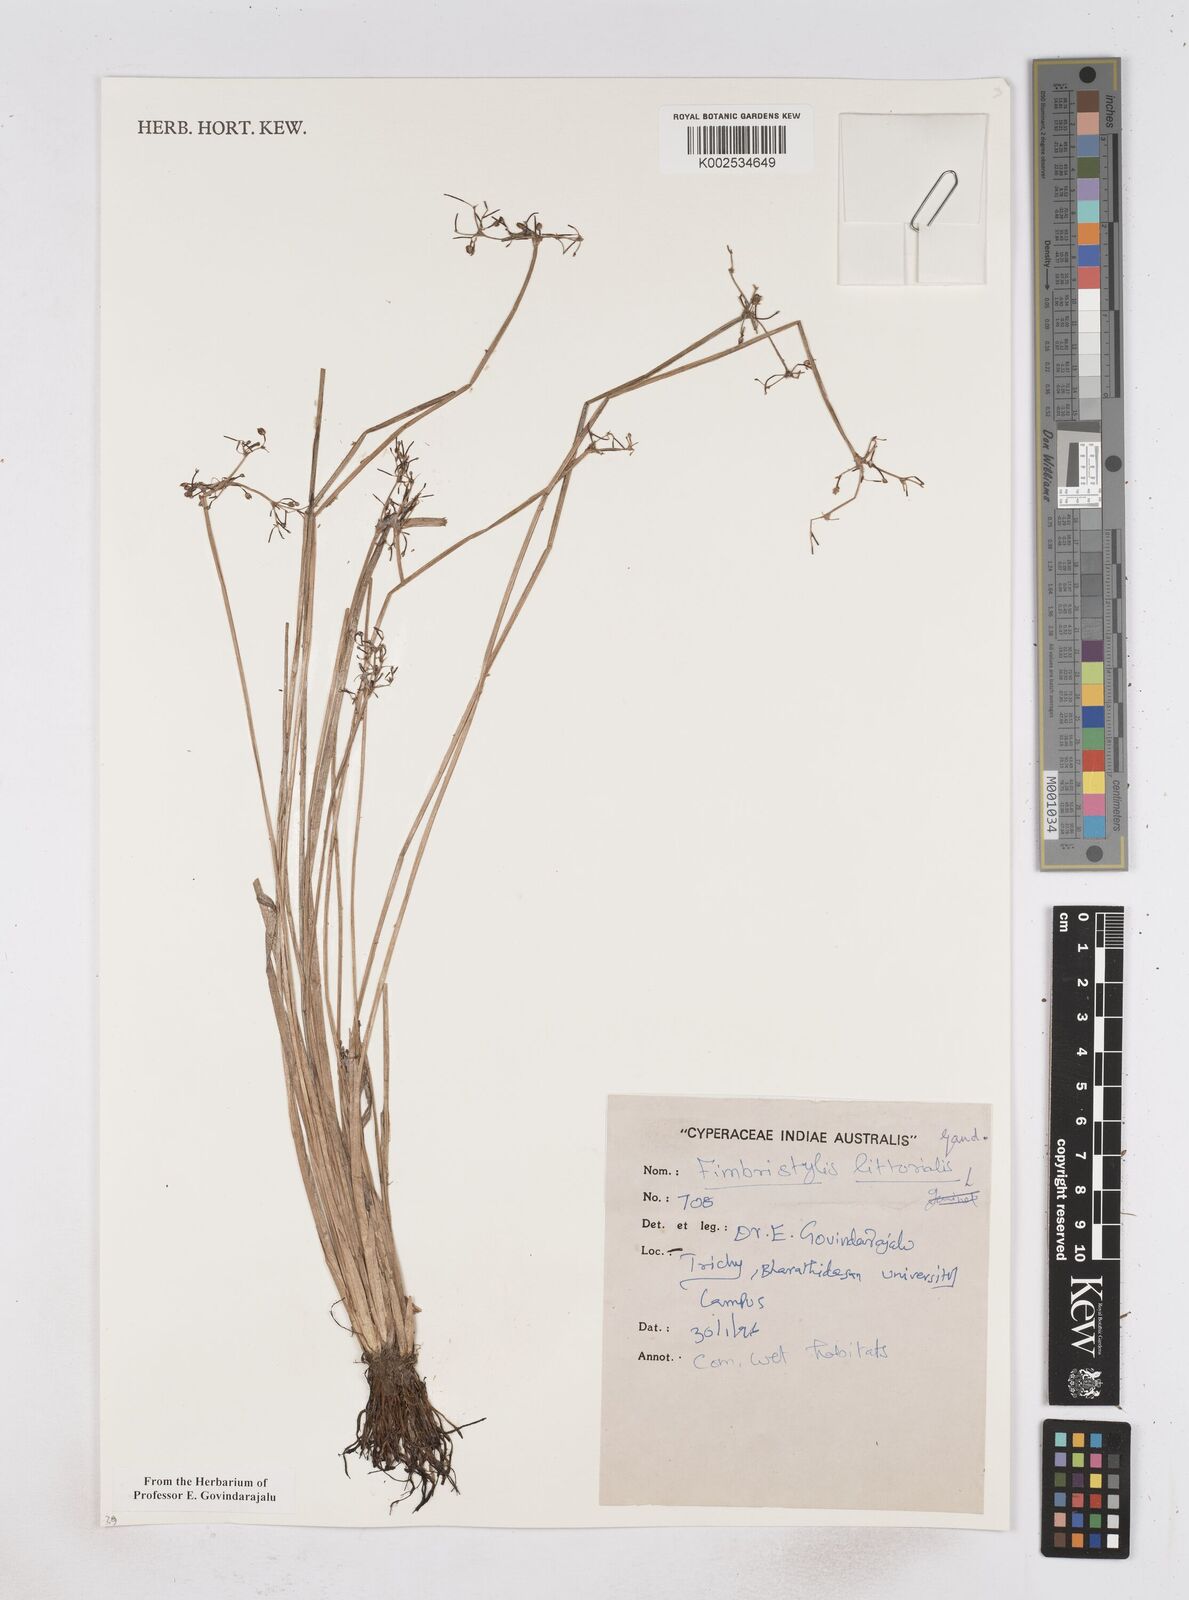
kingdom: Plantae
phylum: Tracheophyta
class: Liliopsida
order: Poales
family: Cyperaceae
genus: Fimbristylis
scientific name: Fimbristylis littoralis
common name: Fimbry
